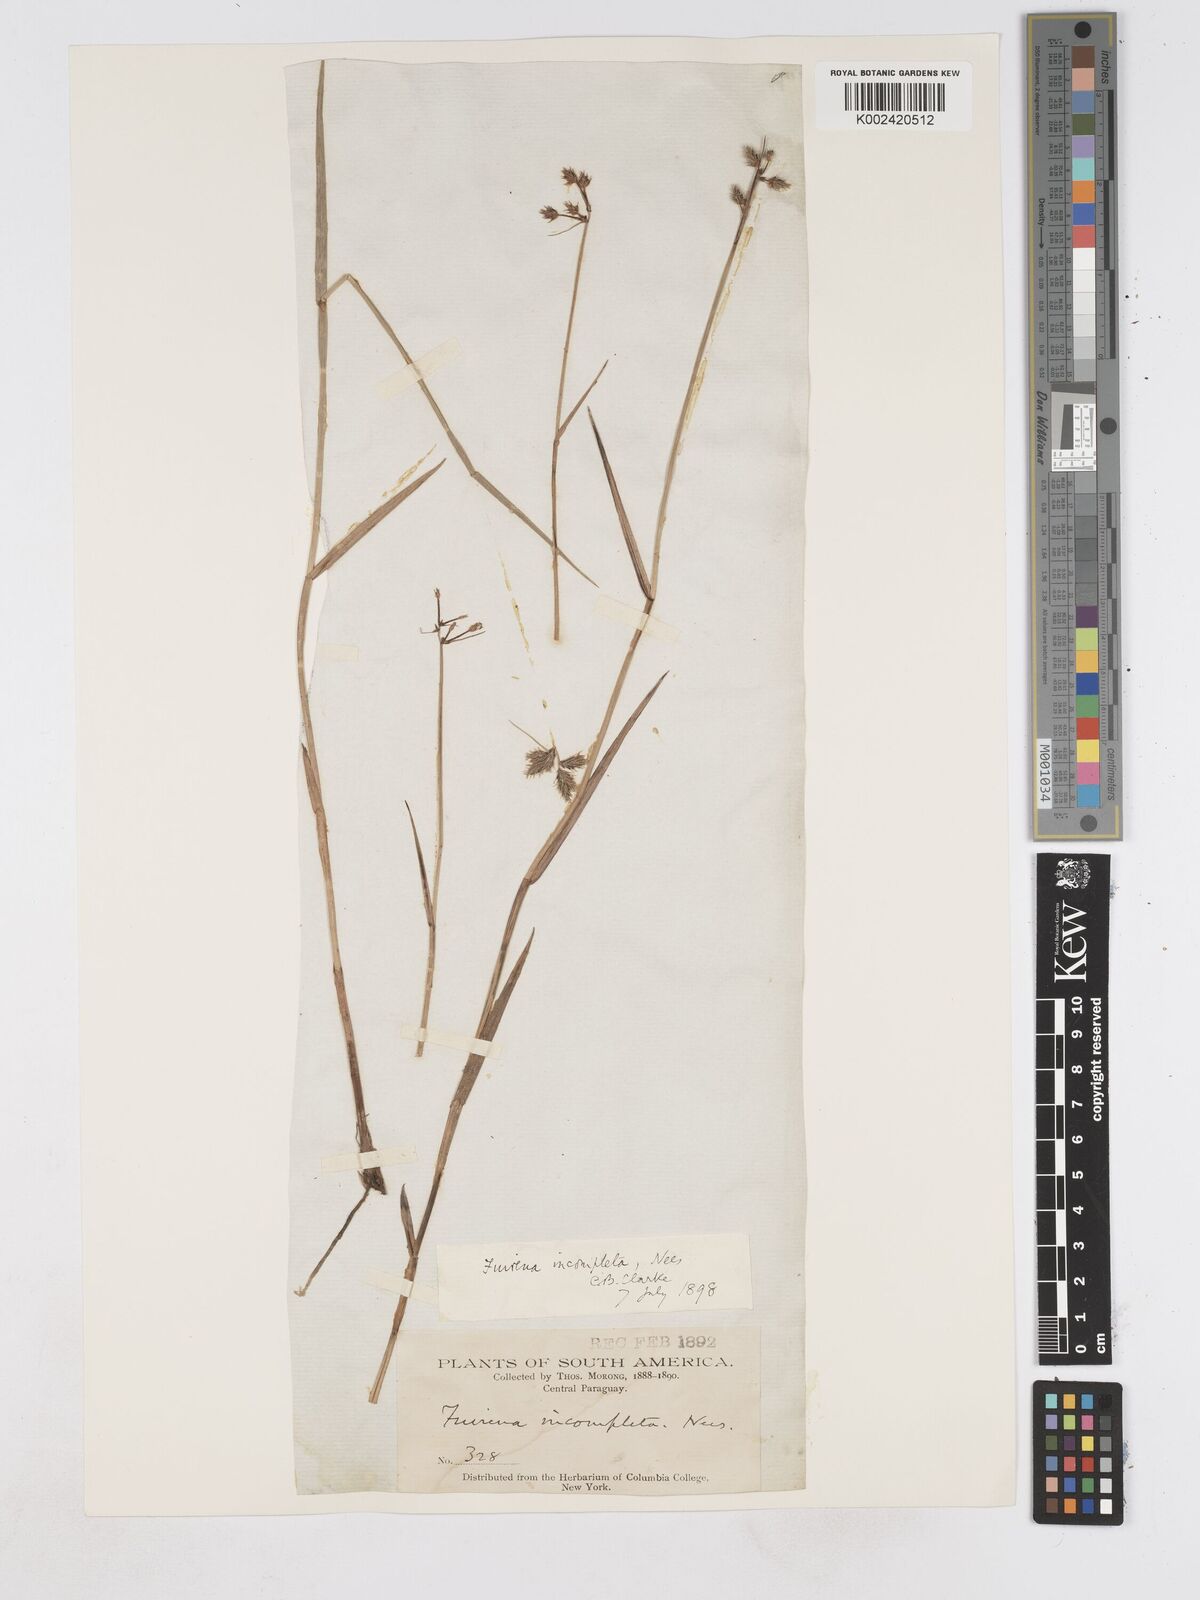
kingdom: Plantae
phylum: Tracheophyta
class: Liliopsida
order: Poales
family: Cyperaceae
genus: Fuirena
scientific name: Fuirena incompleta
